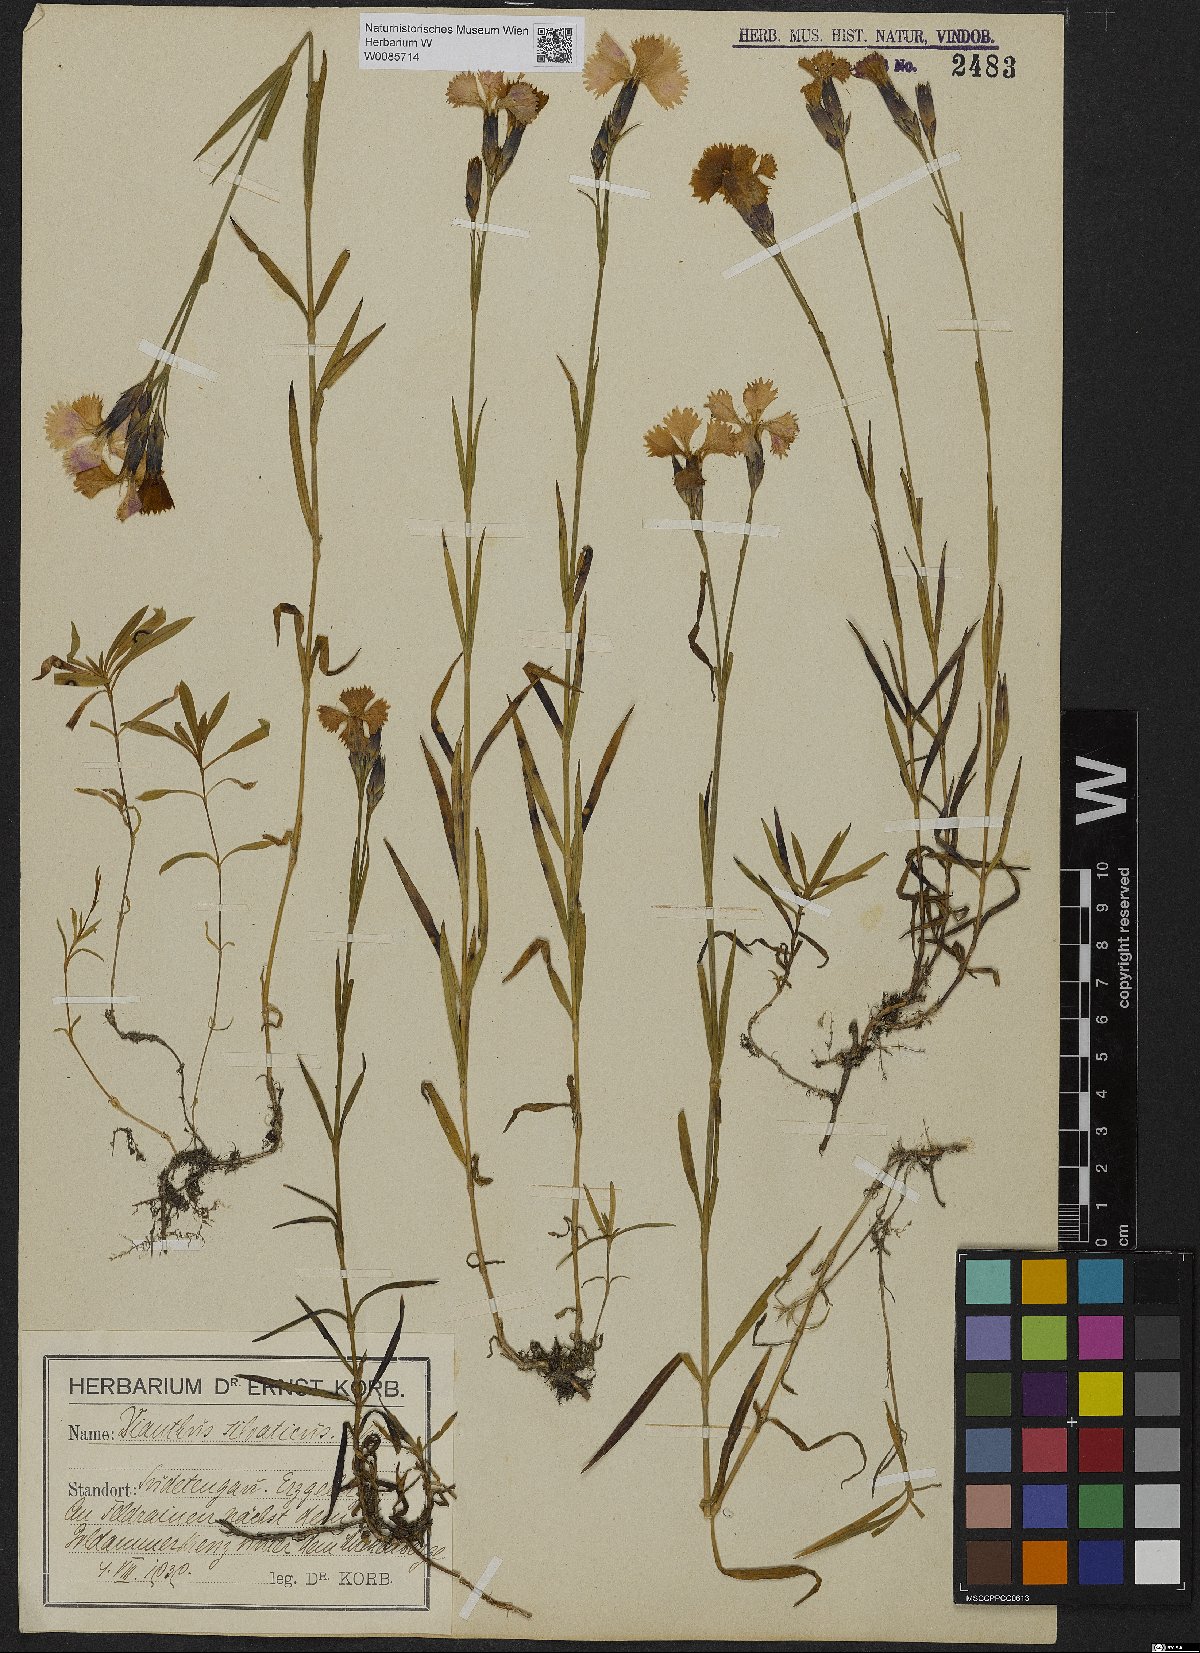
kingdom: Plantae
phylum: Tracheophyta
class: Magnoliopsida
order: Caryophyllales
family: Caryophyllaceae
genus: Dianthus
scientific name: Dianthus seguieri
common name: Ragged pink
